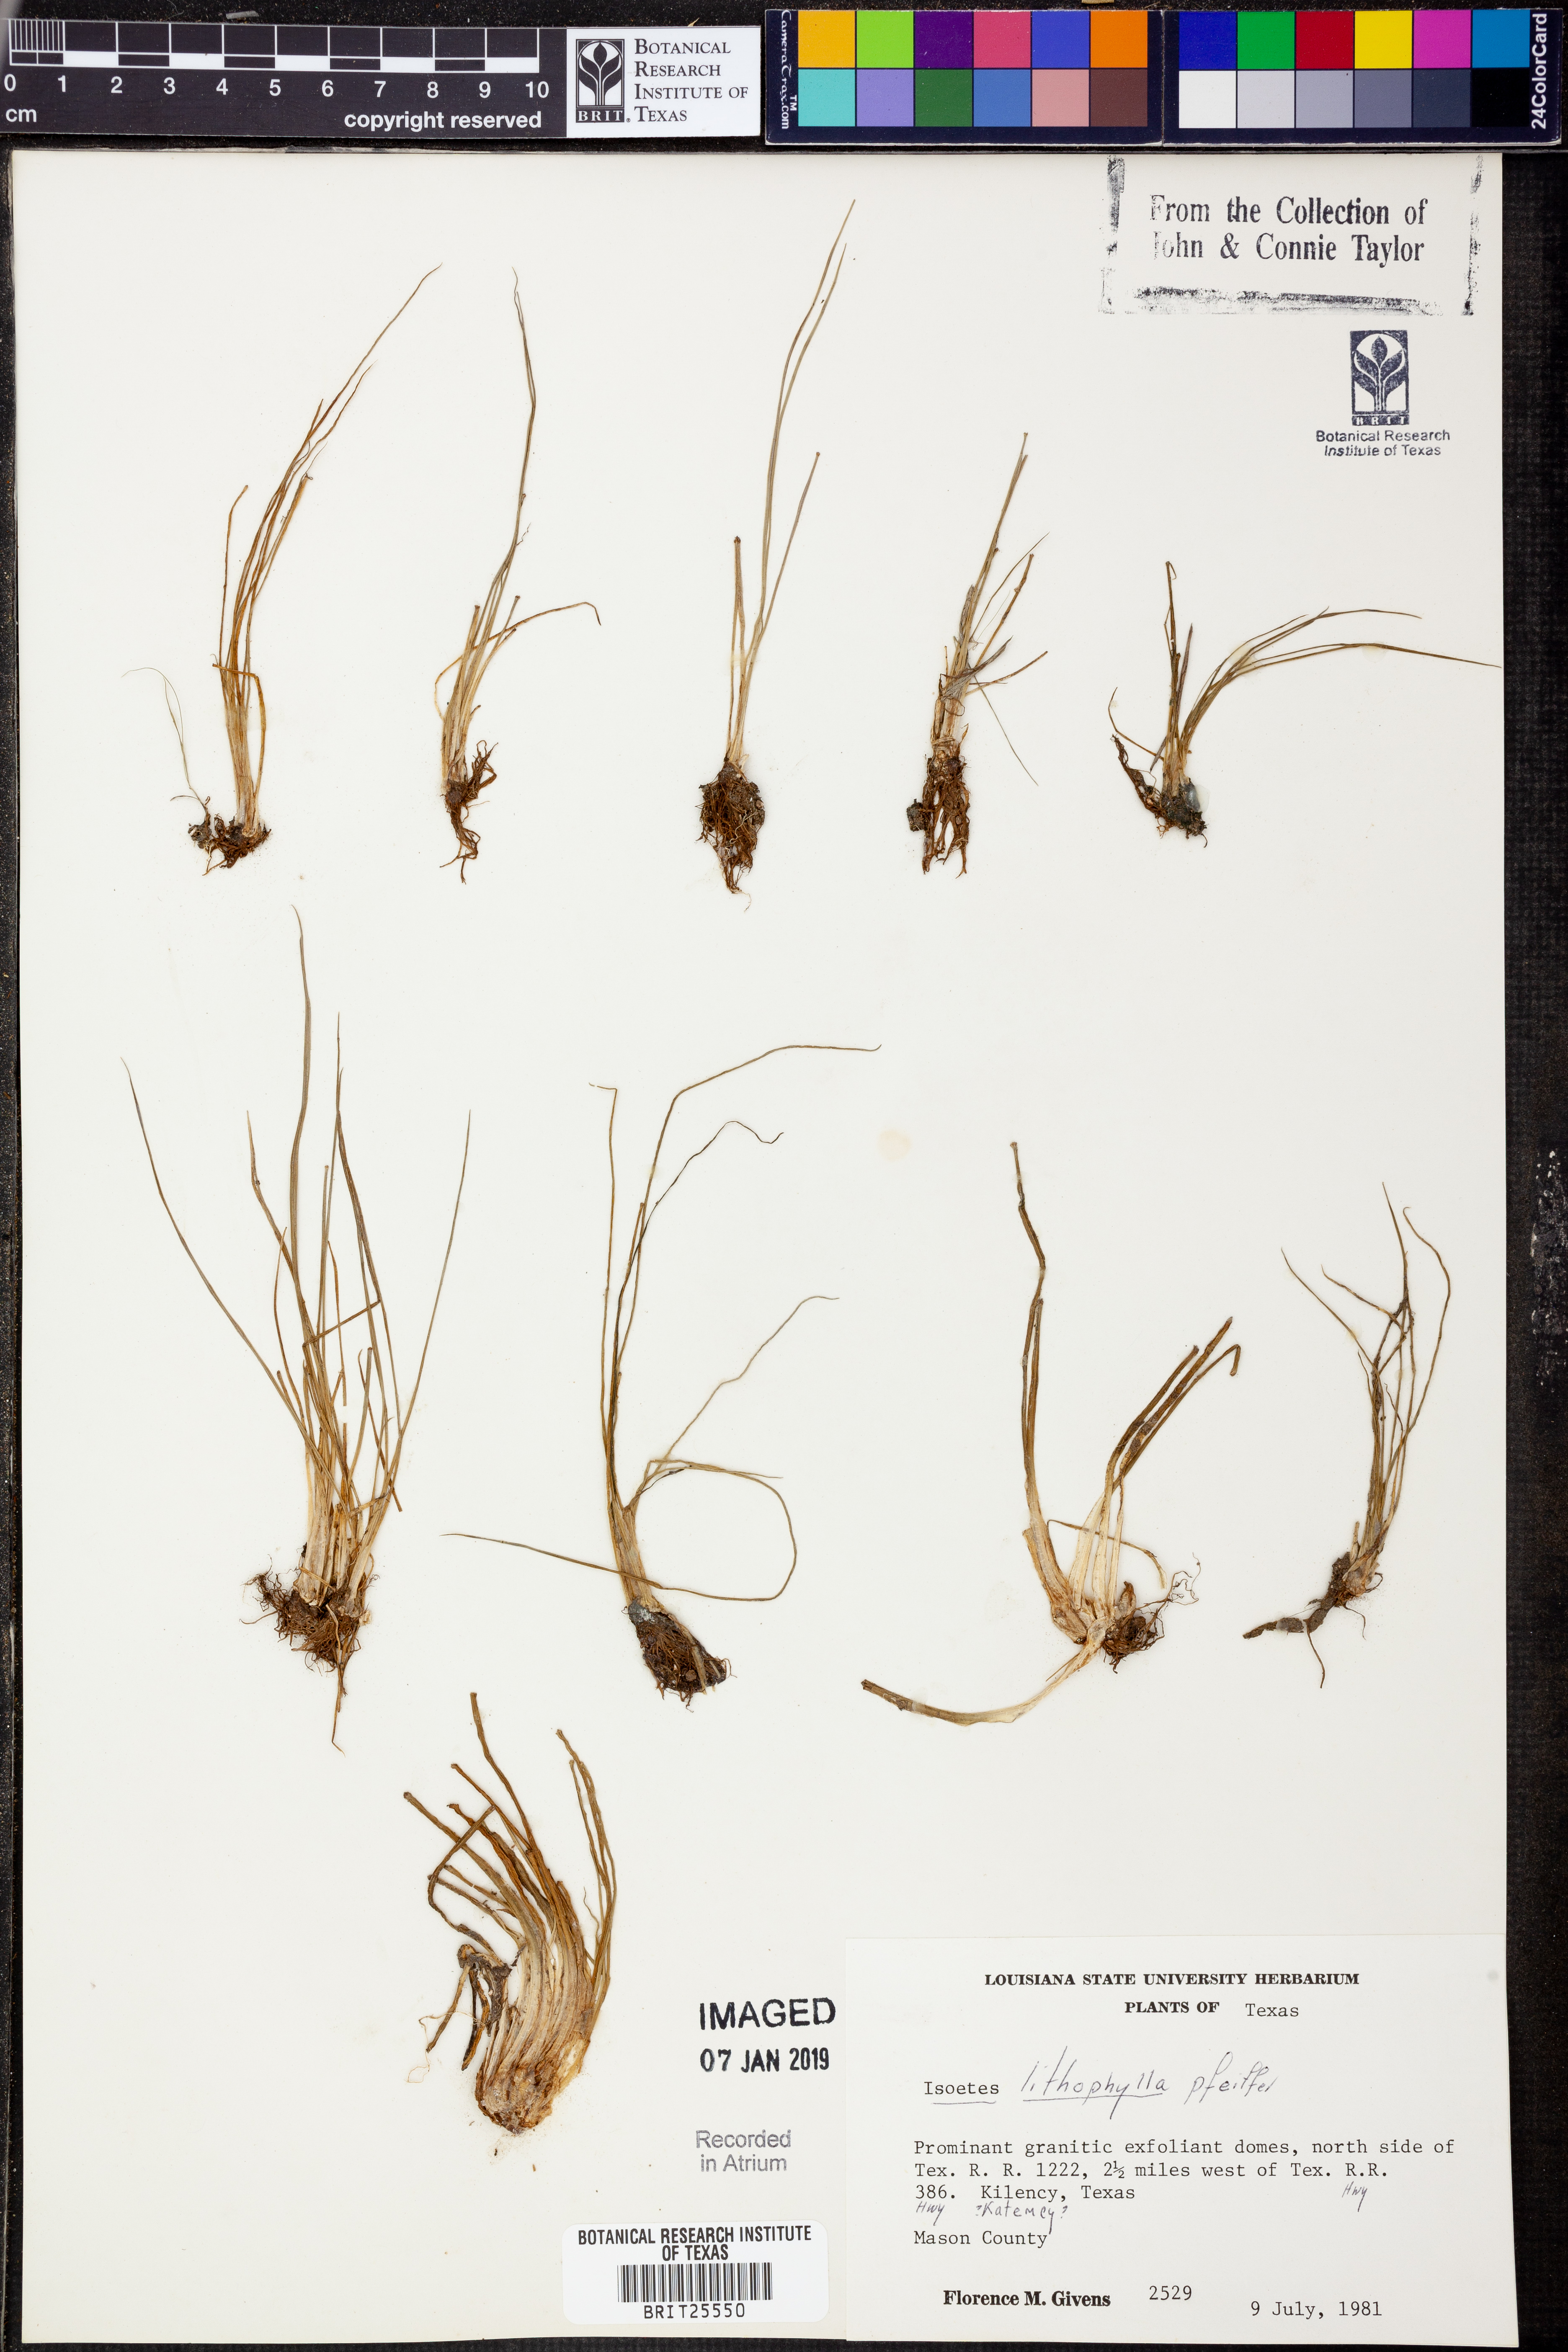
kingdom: Plantae
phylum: Tracheophyta
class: Lycopodiopsida
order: Isoetales
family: Isoetaceae
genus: Isoetes
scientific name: Isoetes lithophila
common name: Rock quillwort
